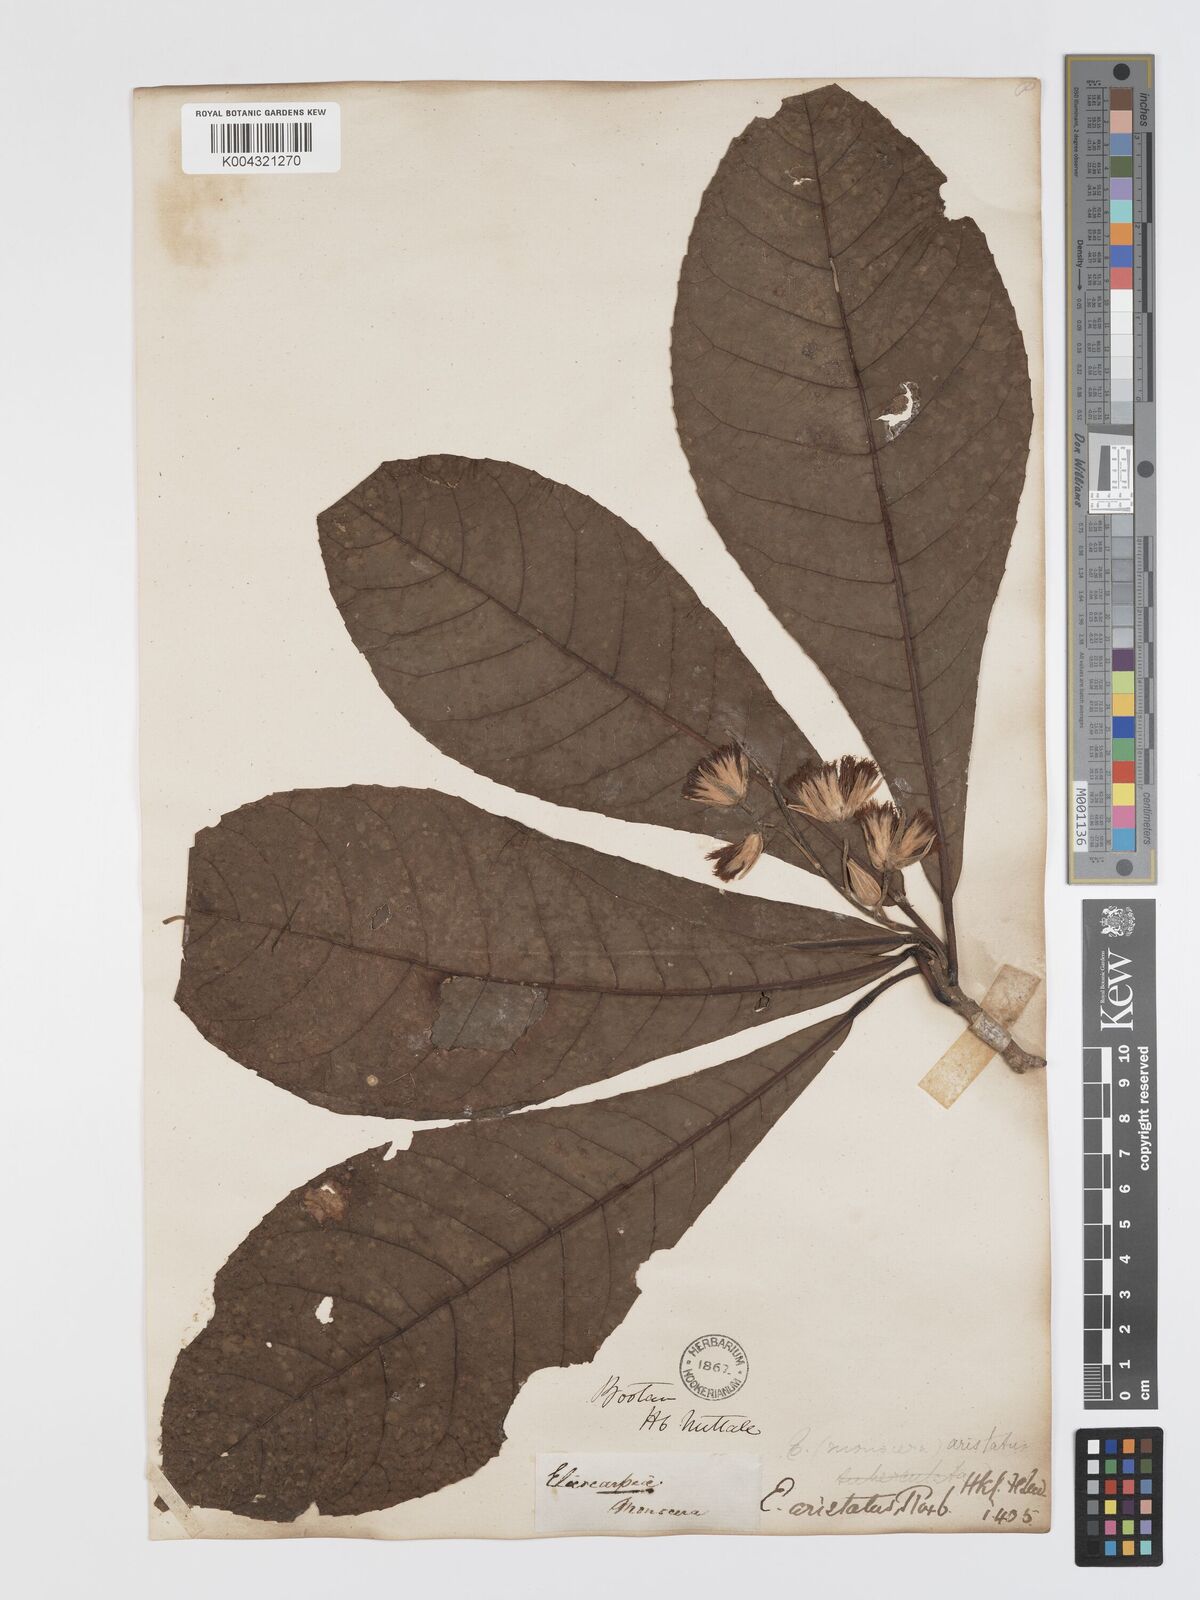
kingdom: Plantae
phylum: Tracheophyta
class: Magnoliopsida
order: Oxalidales
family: Elaeocarpaceae
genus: Elaeocarpus
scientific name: Elaeocarpus aristatus
